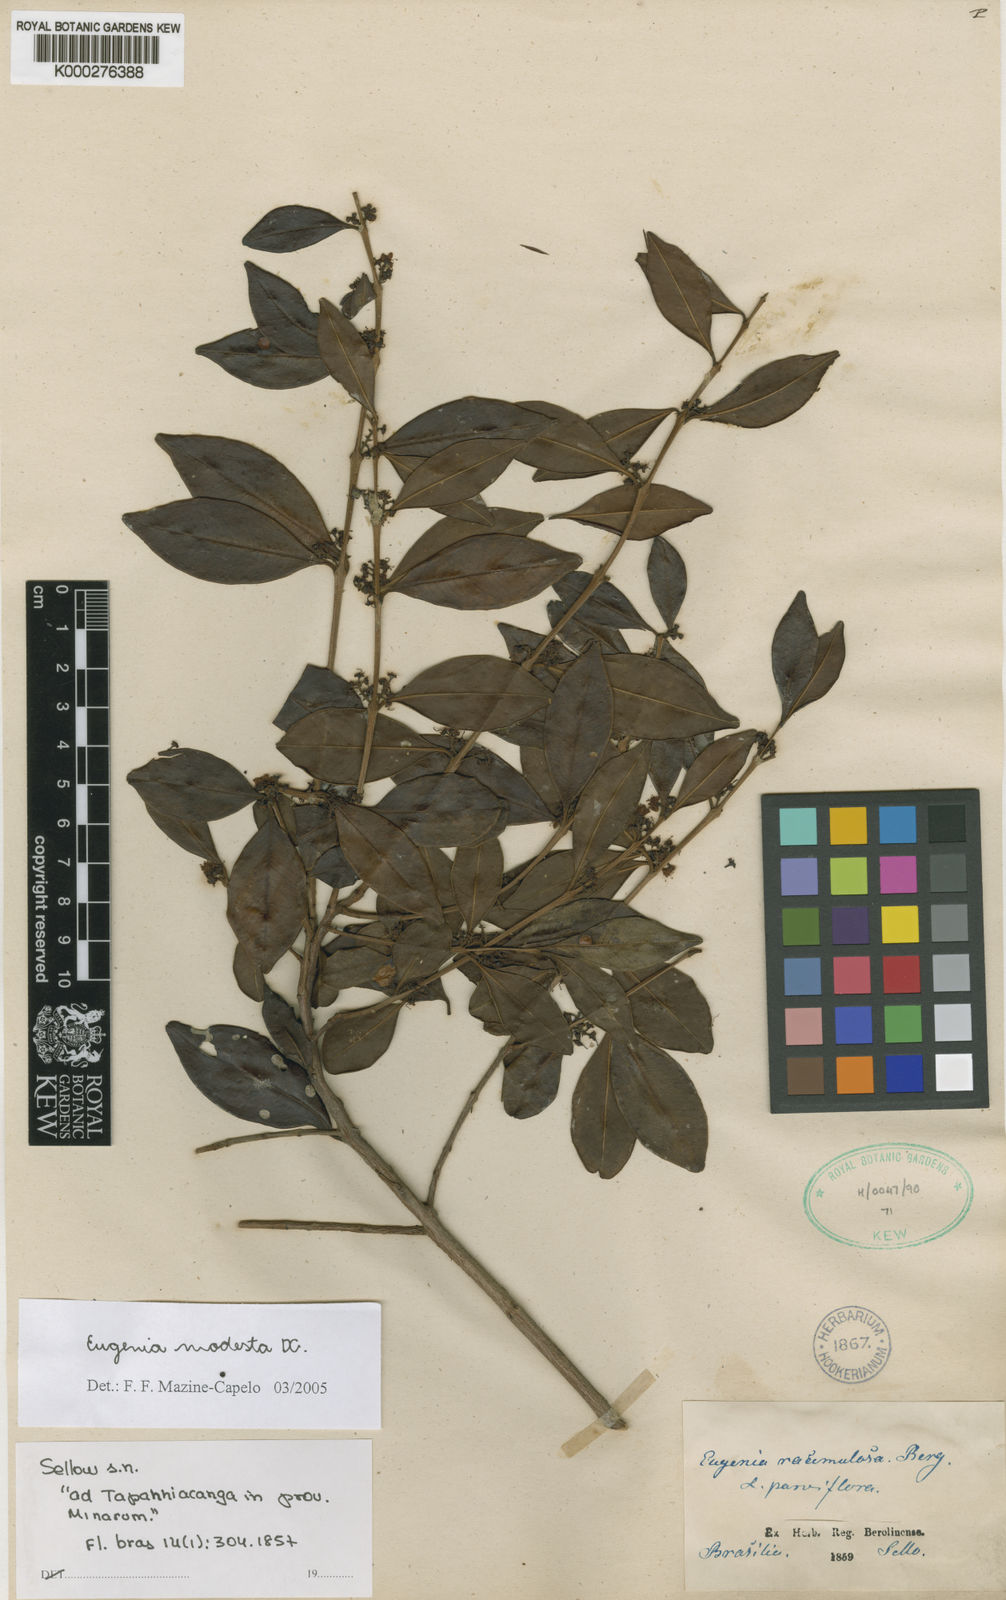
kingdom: Plantae
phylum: Tracheophyta
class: Magnoliopsida
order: Myrtales
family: Myrtaceae
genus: Eugenia
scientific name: Eugenia modesta
